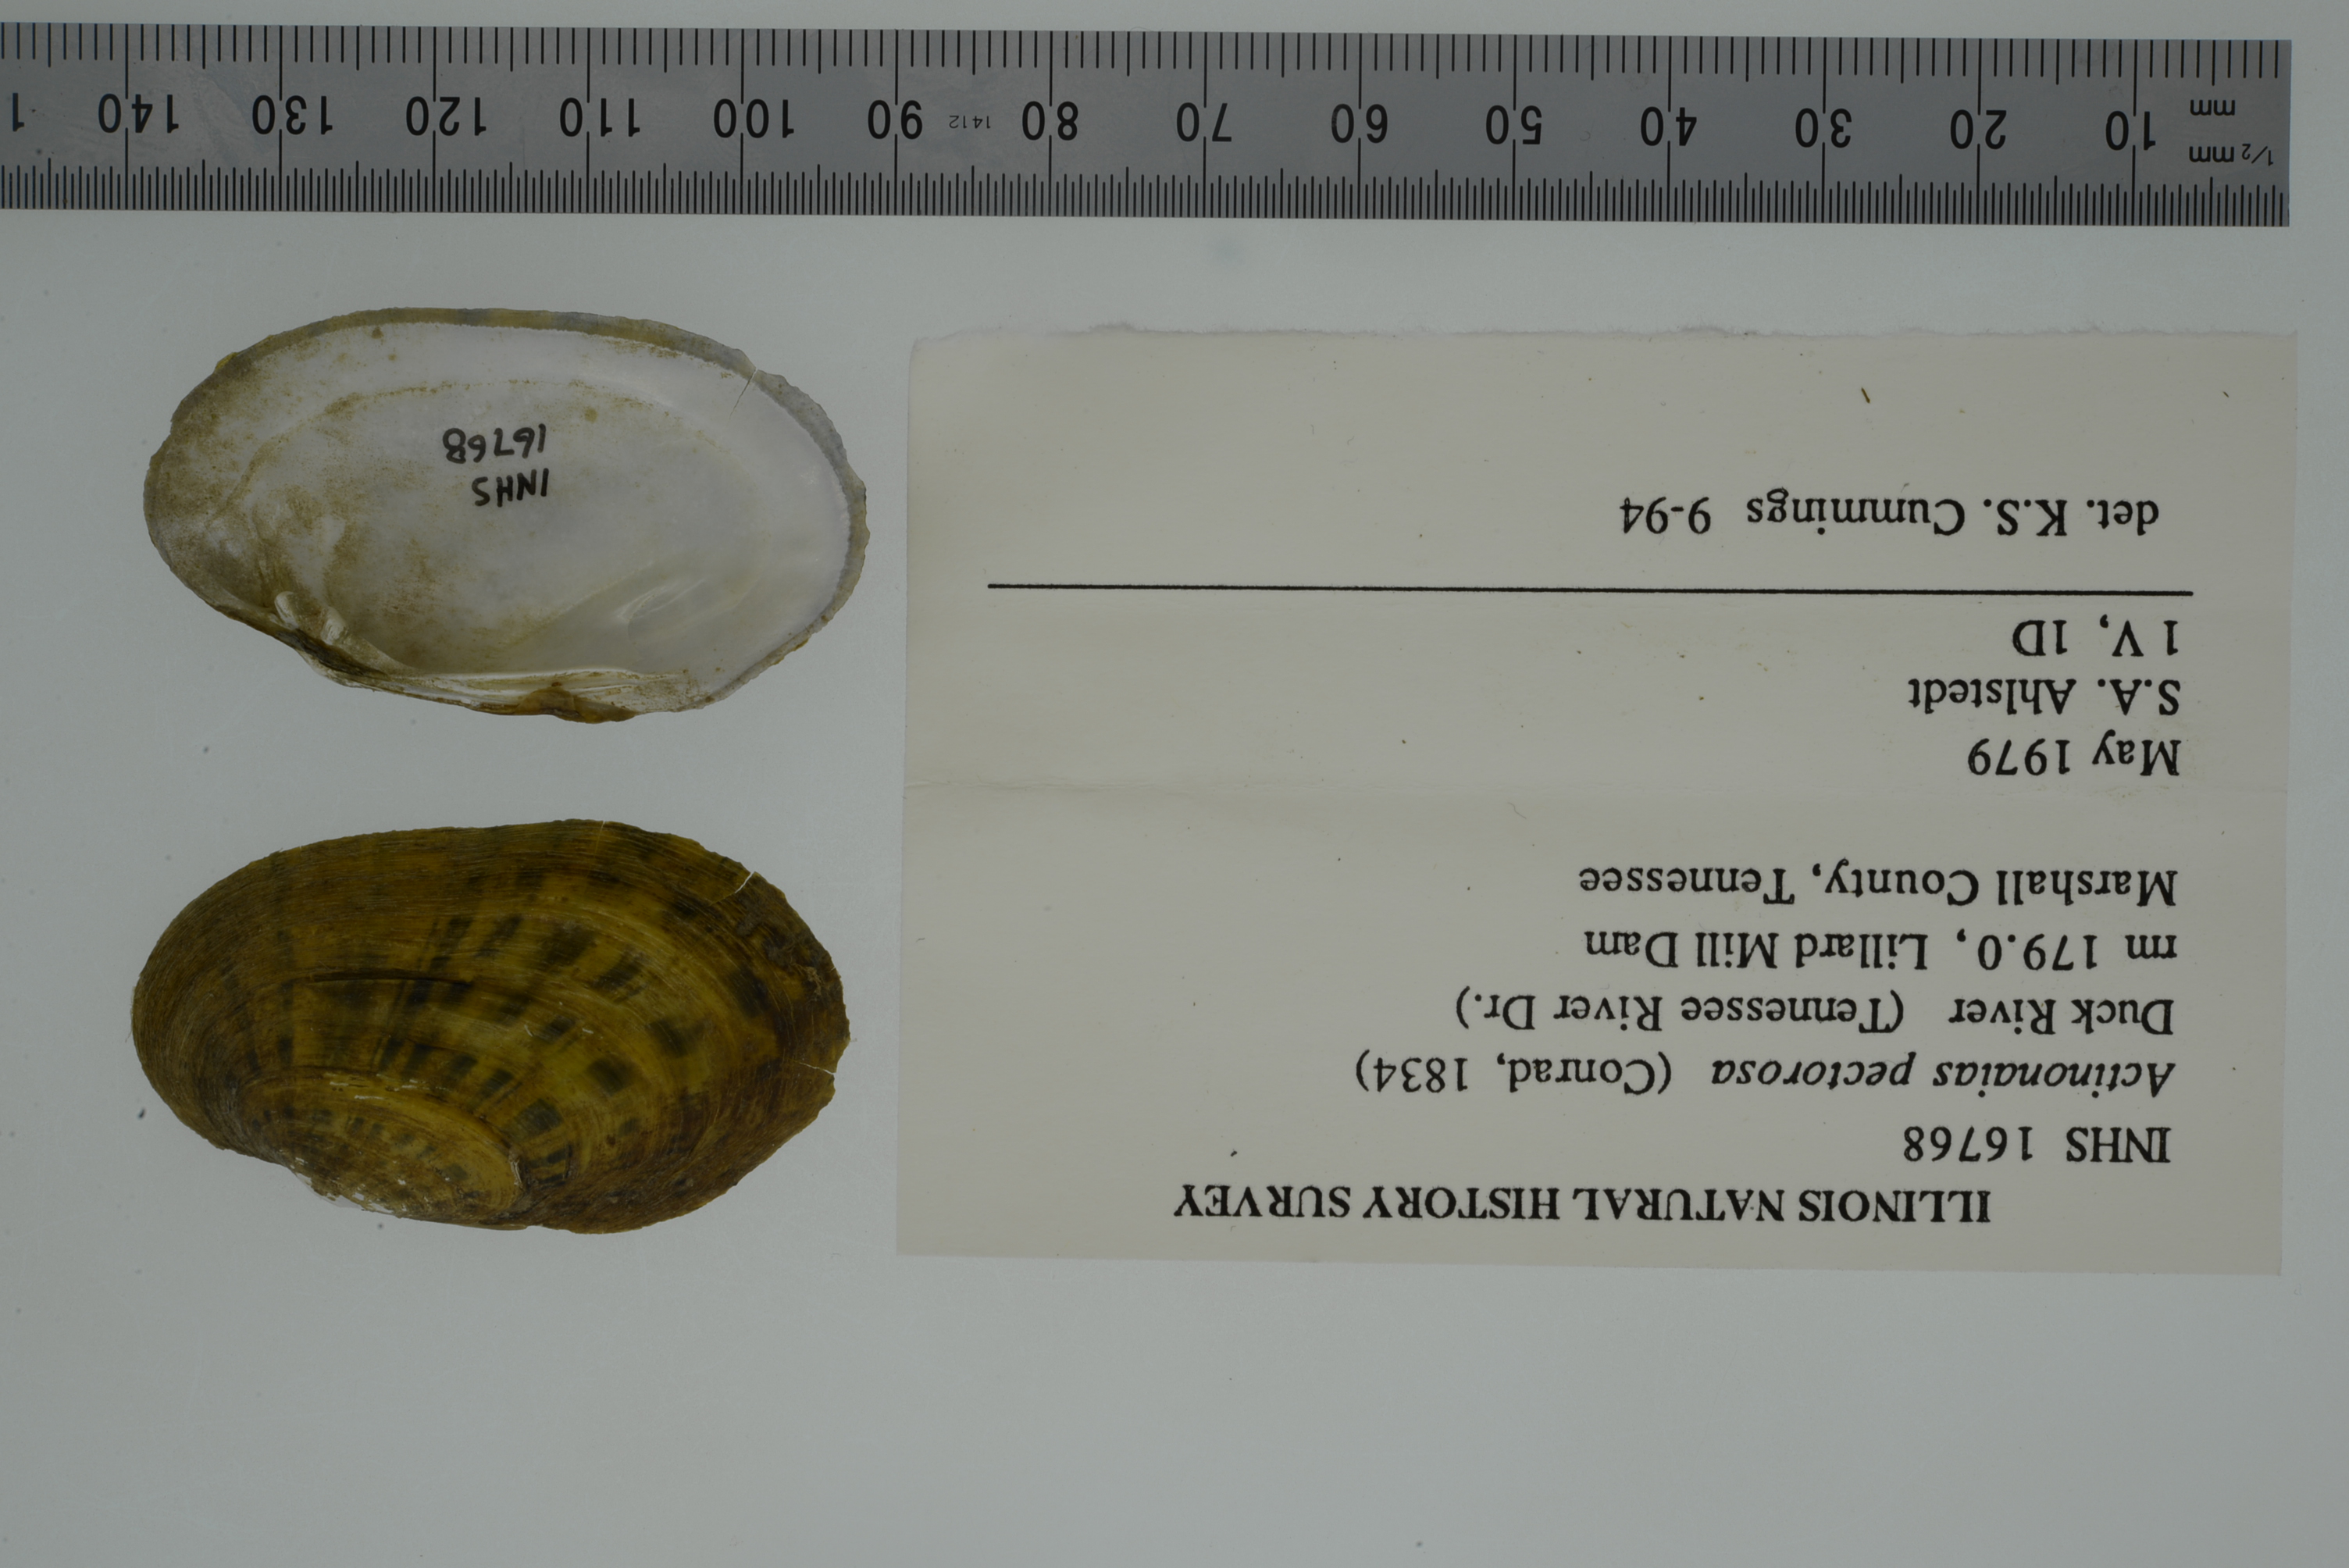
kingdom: Animalia
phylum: Mollusca
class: Bivalvia
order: Unionida
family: Unionidae
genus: Ortmanniana
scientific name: Ortmanniana pectorosa
